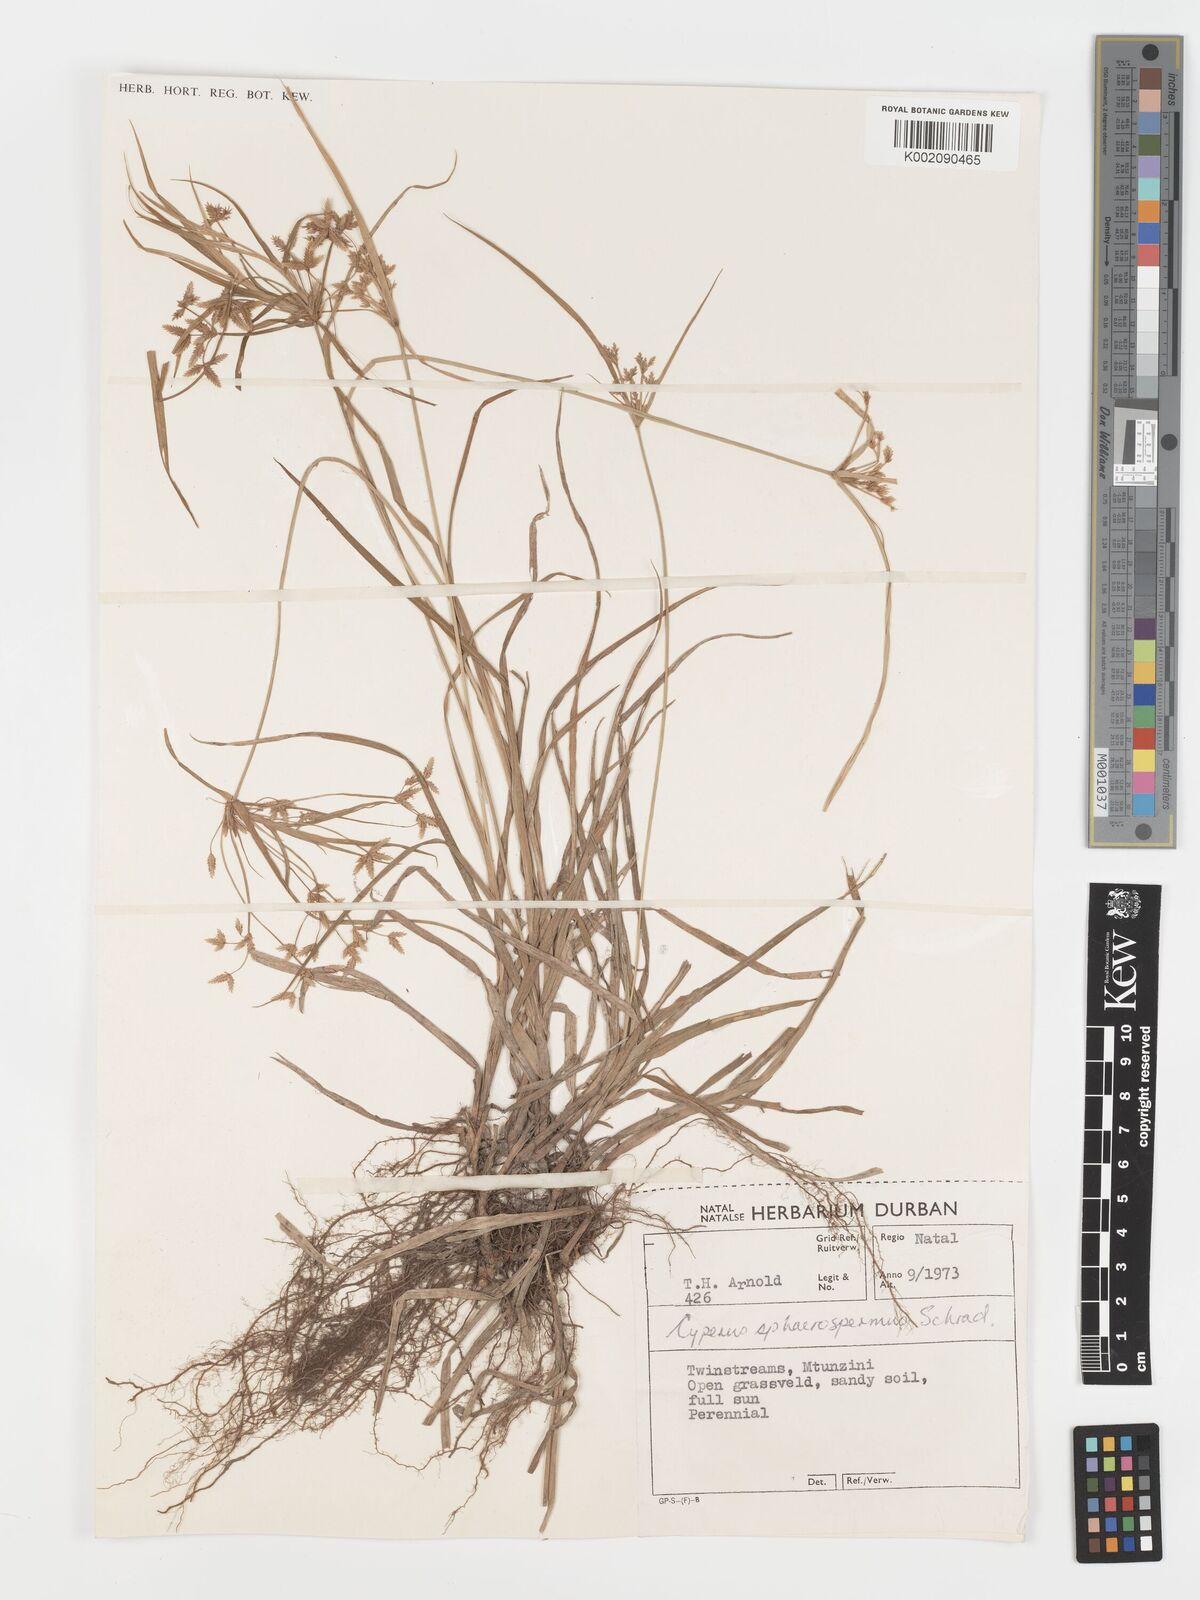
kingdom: Plantae
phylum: Tracheophyta
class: Liliopsida
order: Poales
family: Cyperaceae
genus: Cyperus
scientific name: Cyperus sphaerospermus
